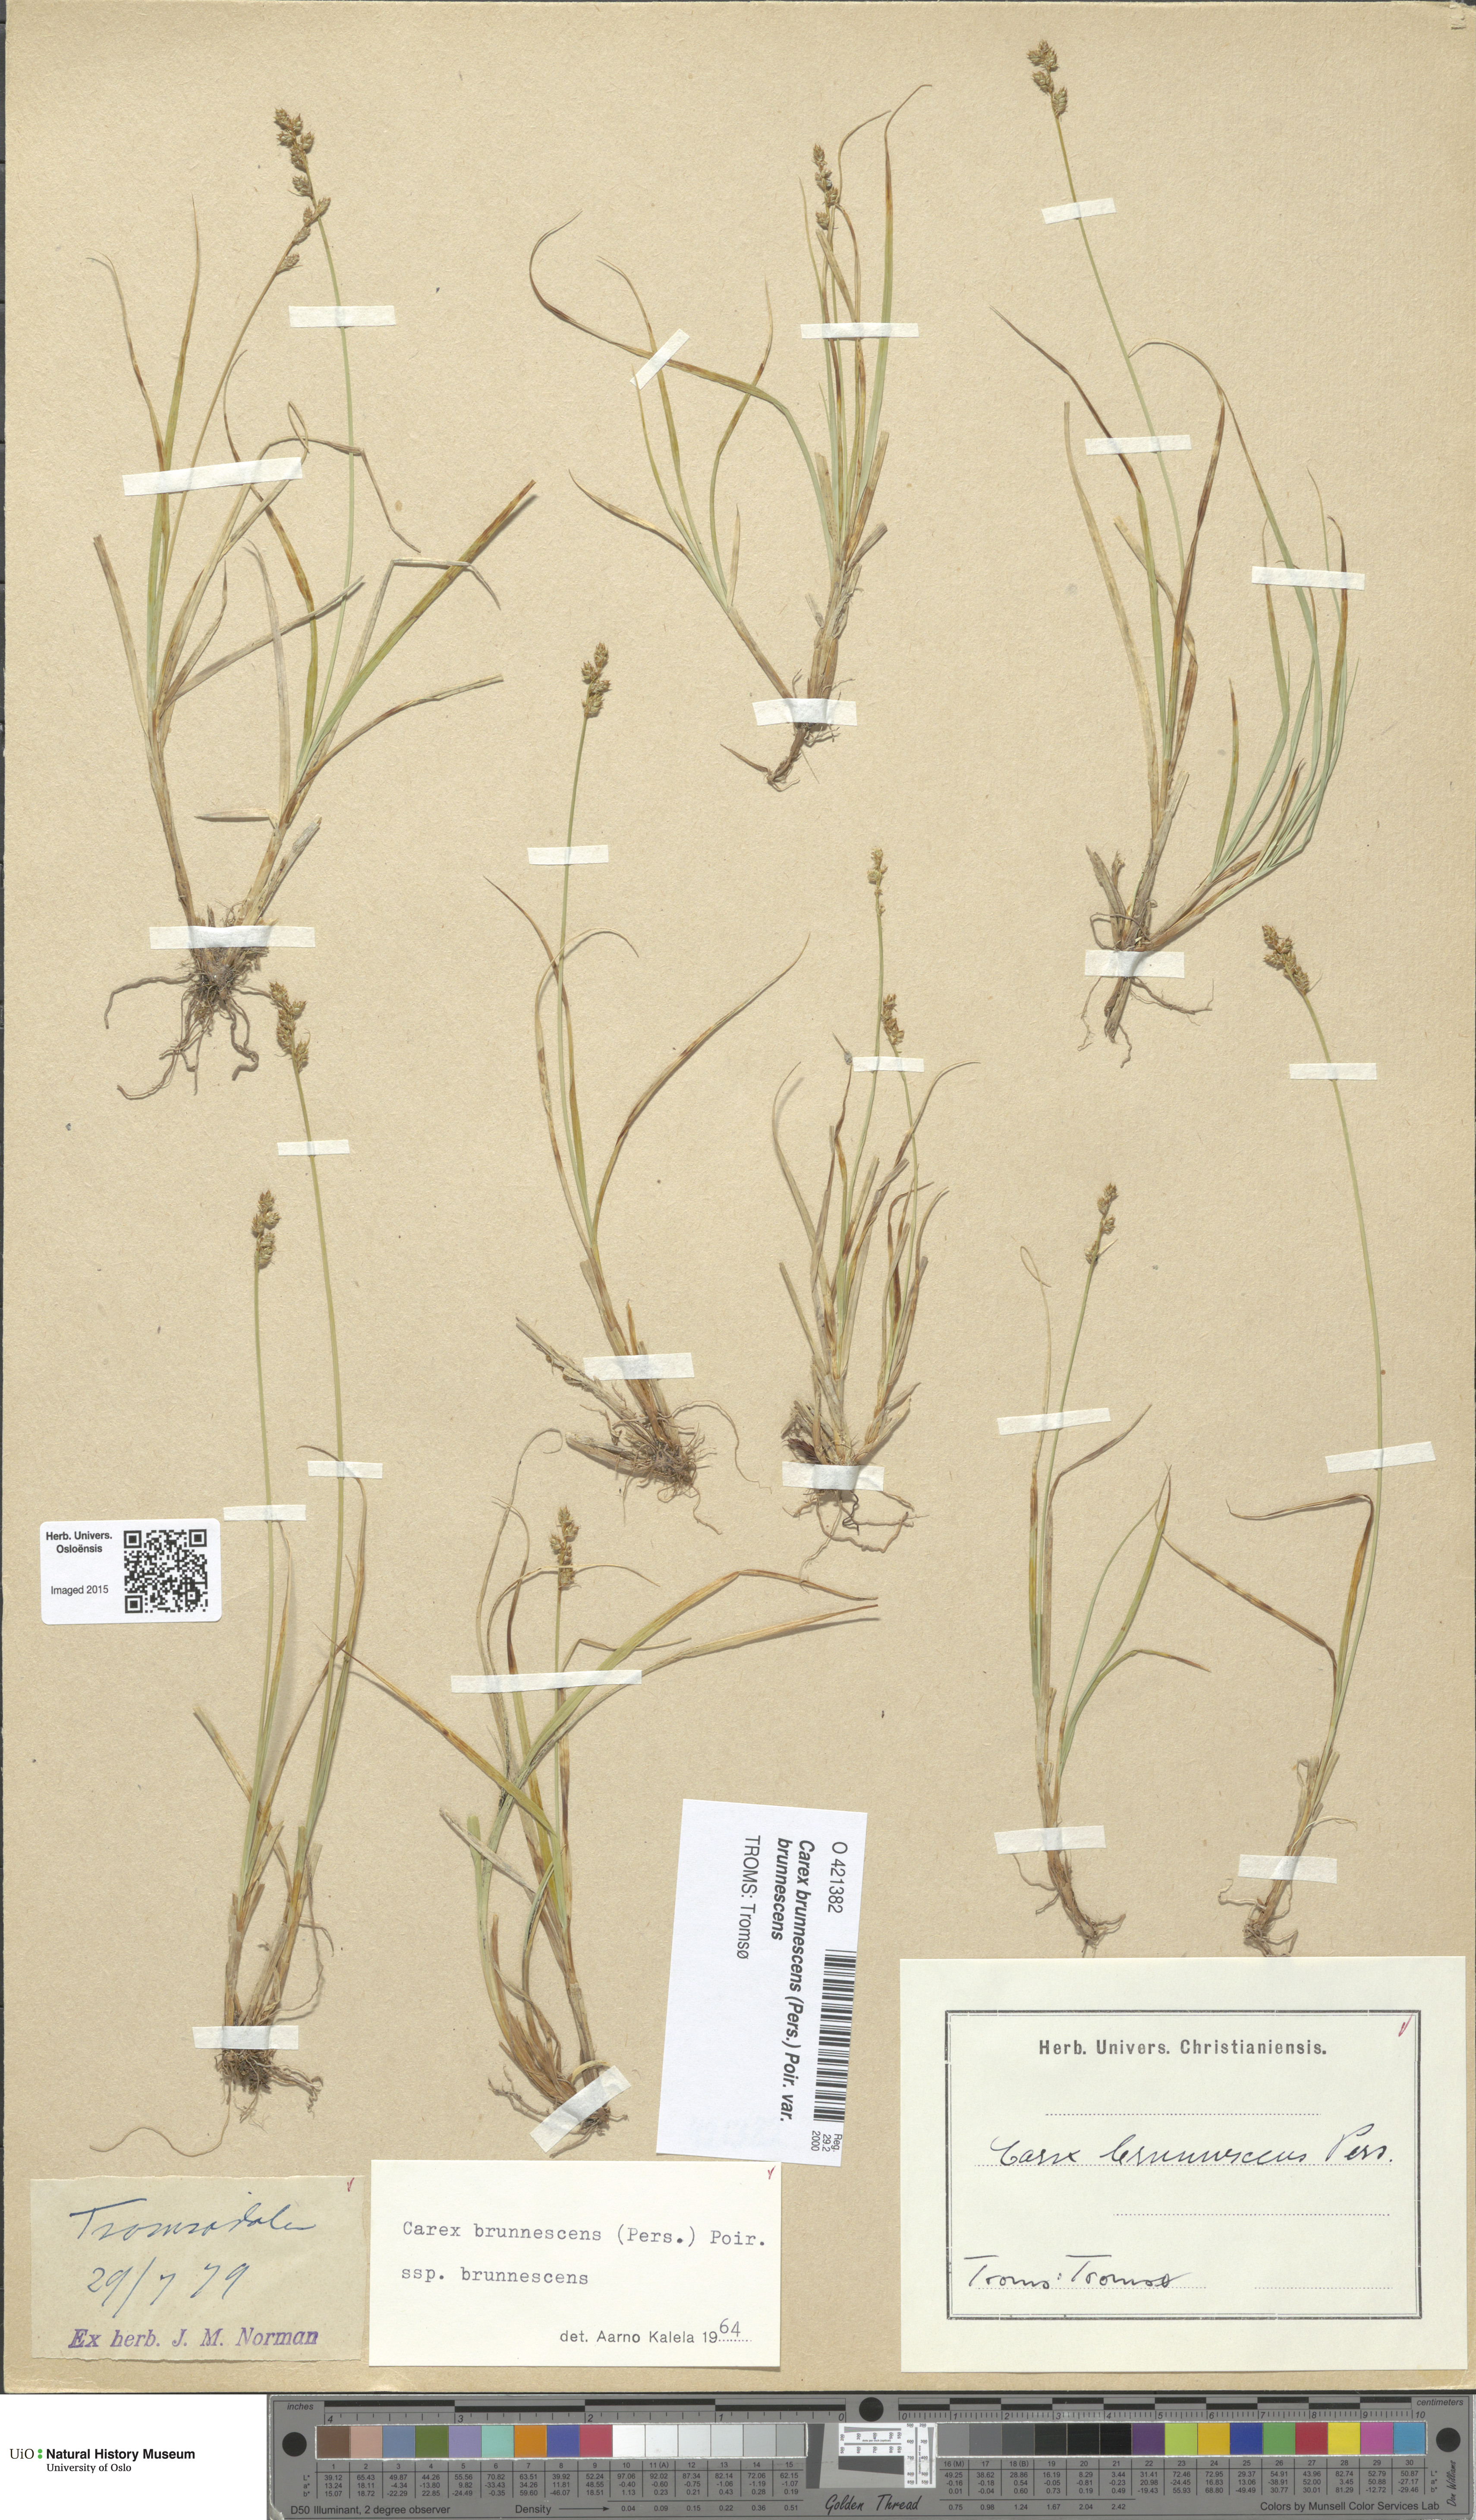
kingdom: Plantae
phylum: Tracheophyta
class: Liliopsida
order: Poales
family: Cyperaceae
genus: Carex
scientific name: Carex brunnescens
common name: Brown sedge
